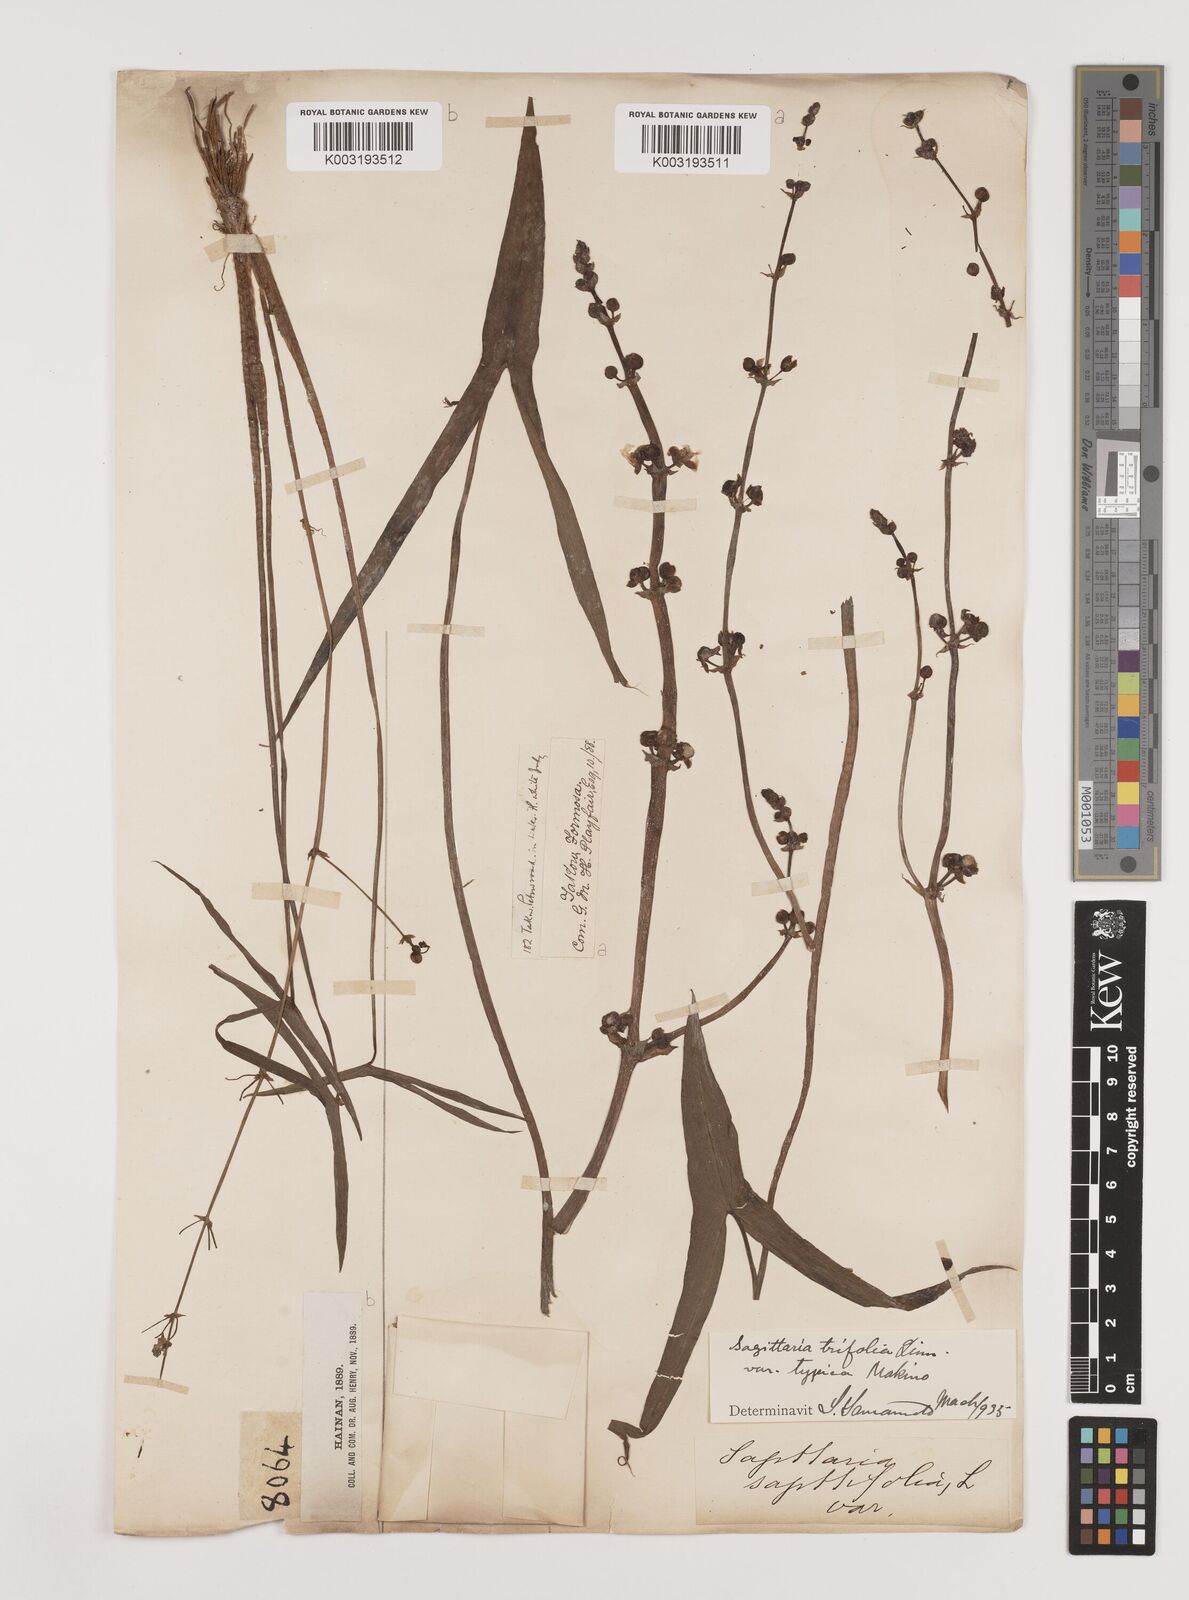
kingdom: Plantae
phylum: Tracheophyta
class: Liliopsida
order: Alismatales
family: Alismataceae
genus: Sagittaria
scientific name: Sagittaria sagittifolia
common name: Arrowhead
